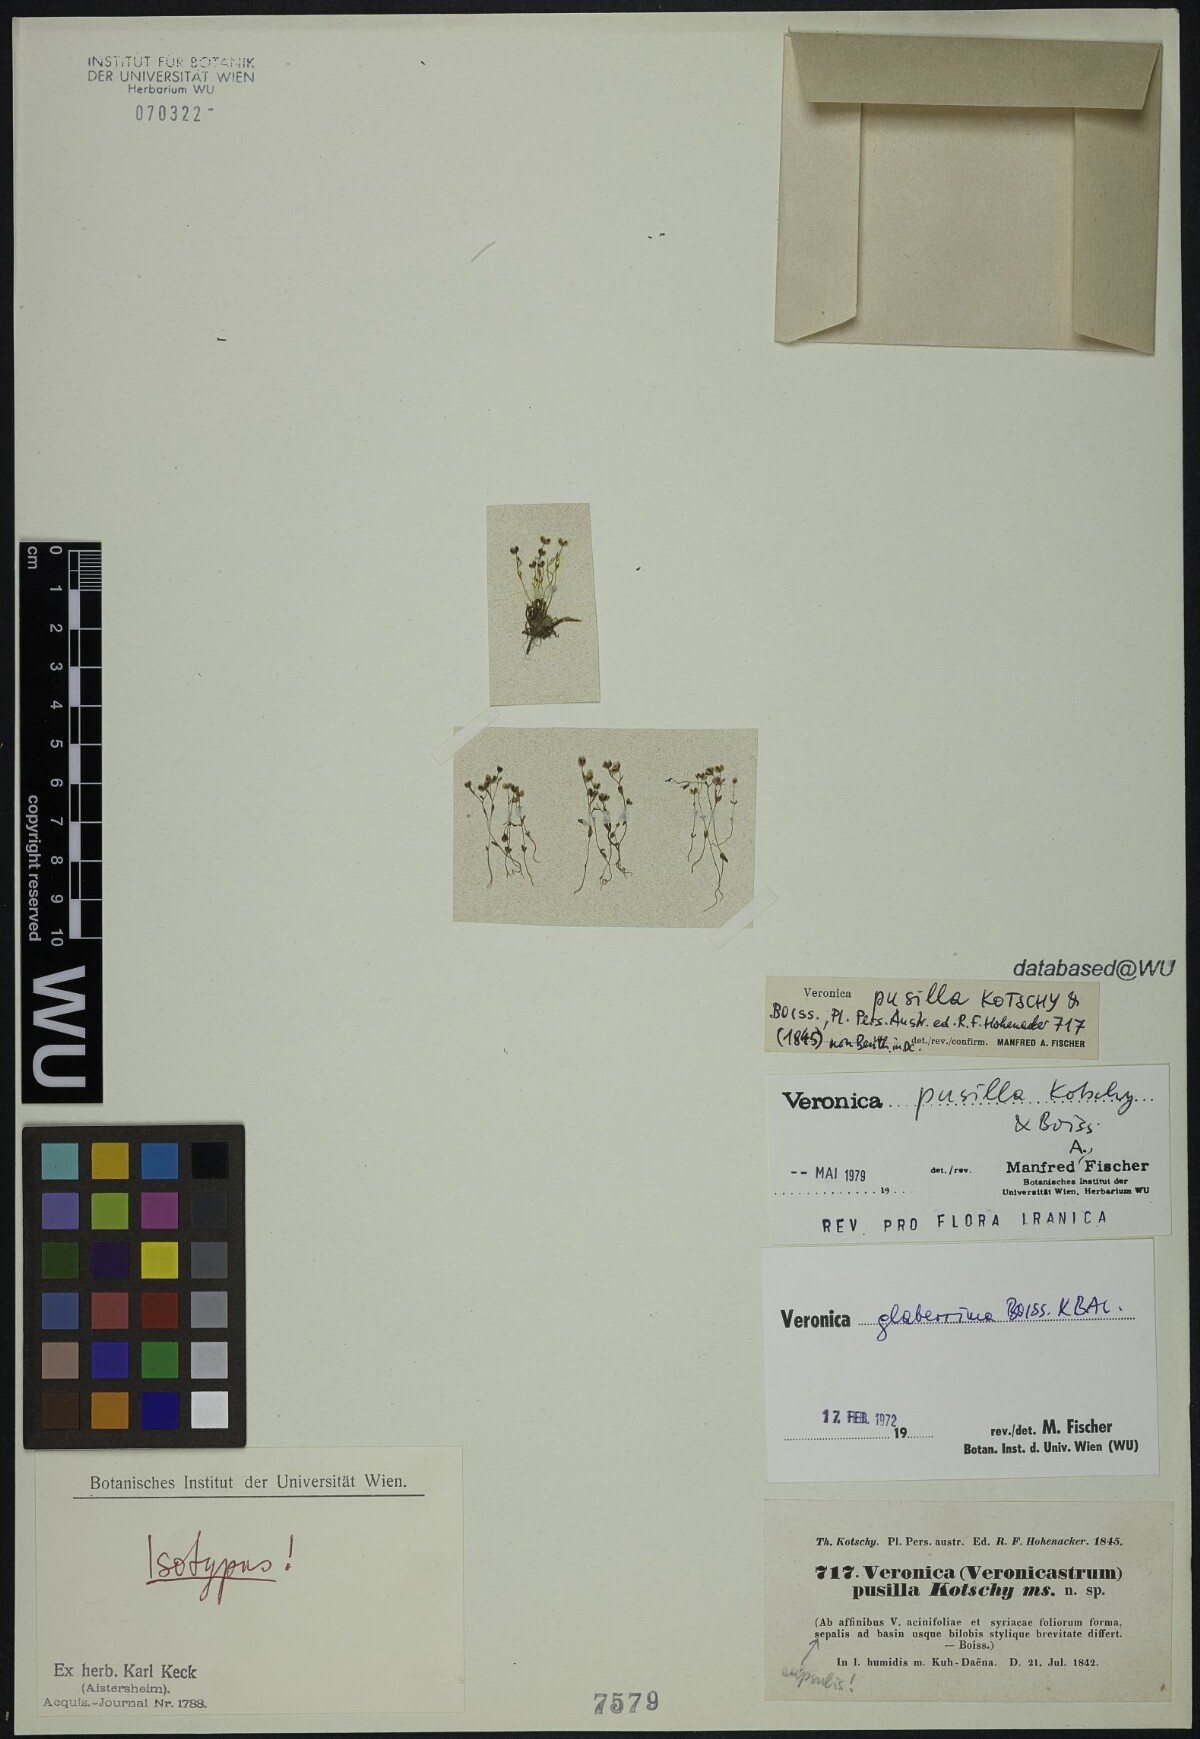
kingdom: Plantae
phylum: Tracheophyta
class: Magnoliopsida
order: Lamiales
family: Plantaginaceae
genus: Veronica
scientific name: Veronica pusilla
